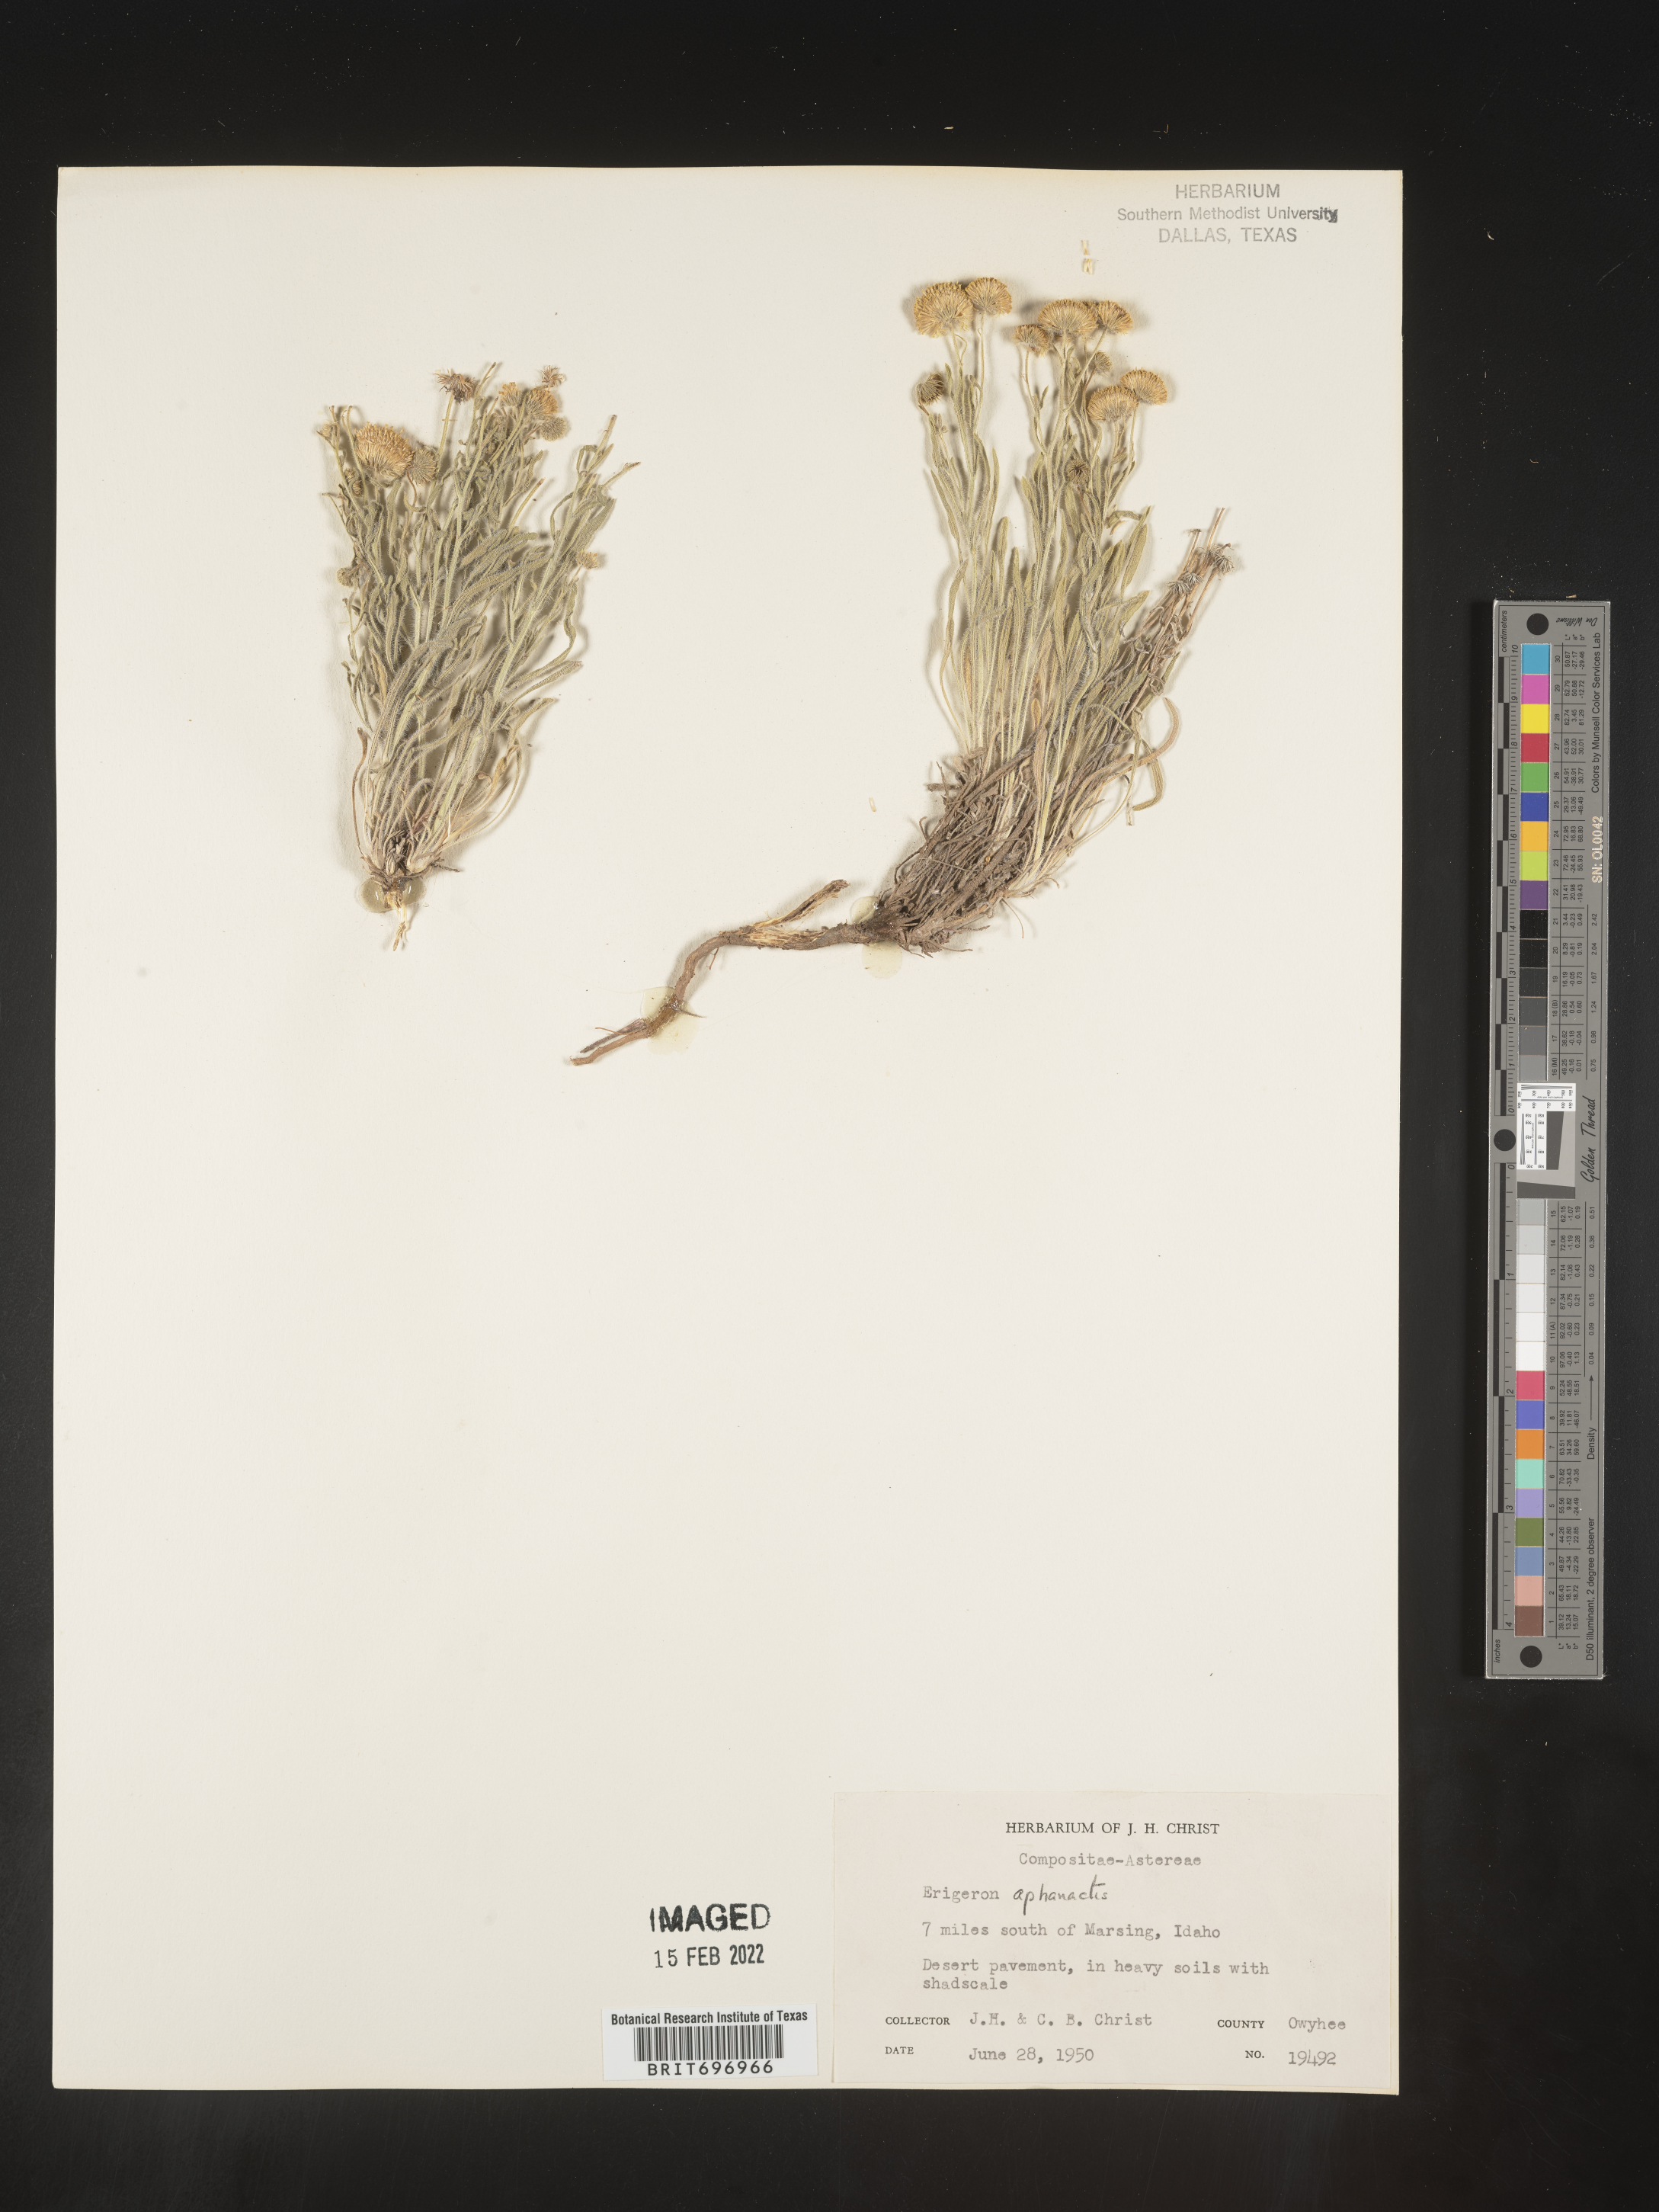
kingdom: Plantae
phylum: Tracheophyta
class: Magnoliopsida
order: Asterales
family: Asteraceae
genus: Erigeron
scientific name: Erigeron aphanactis
